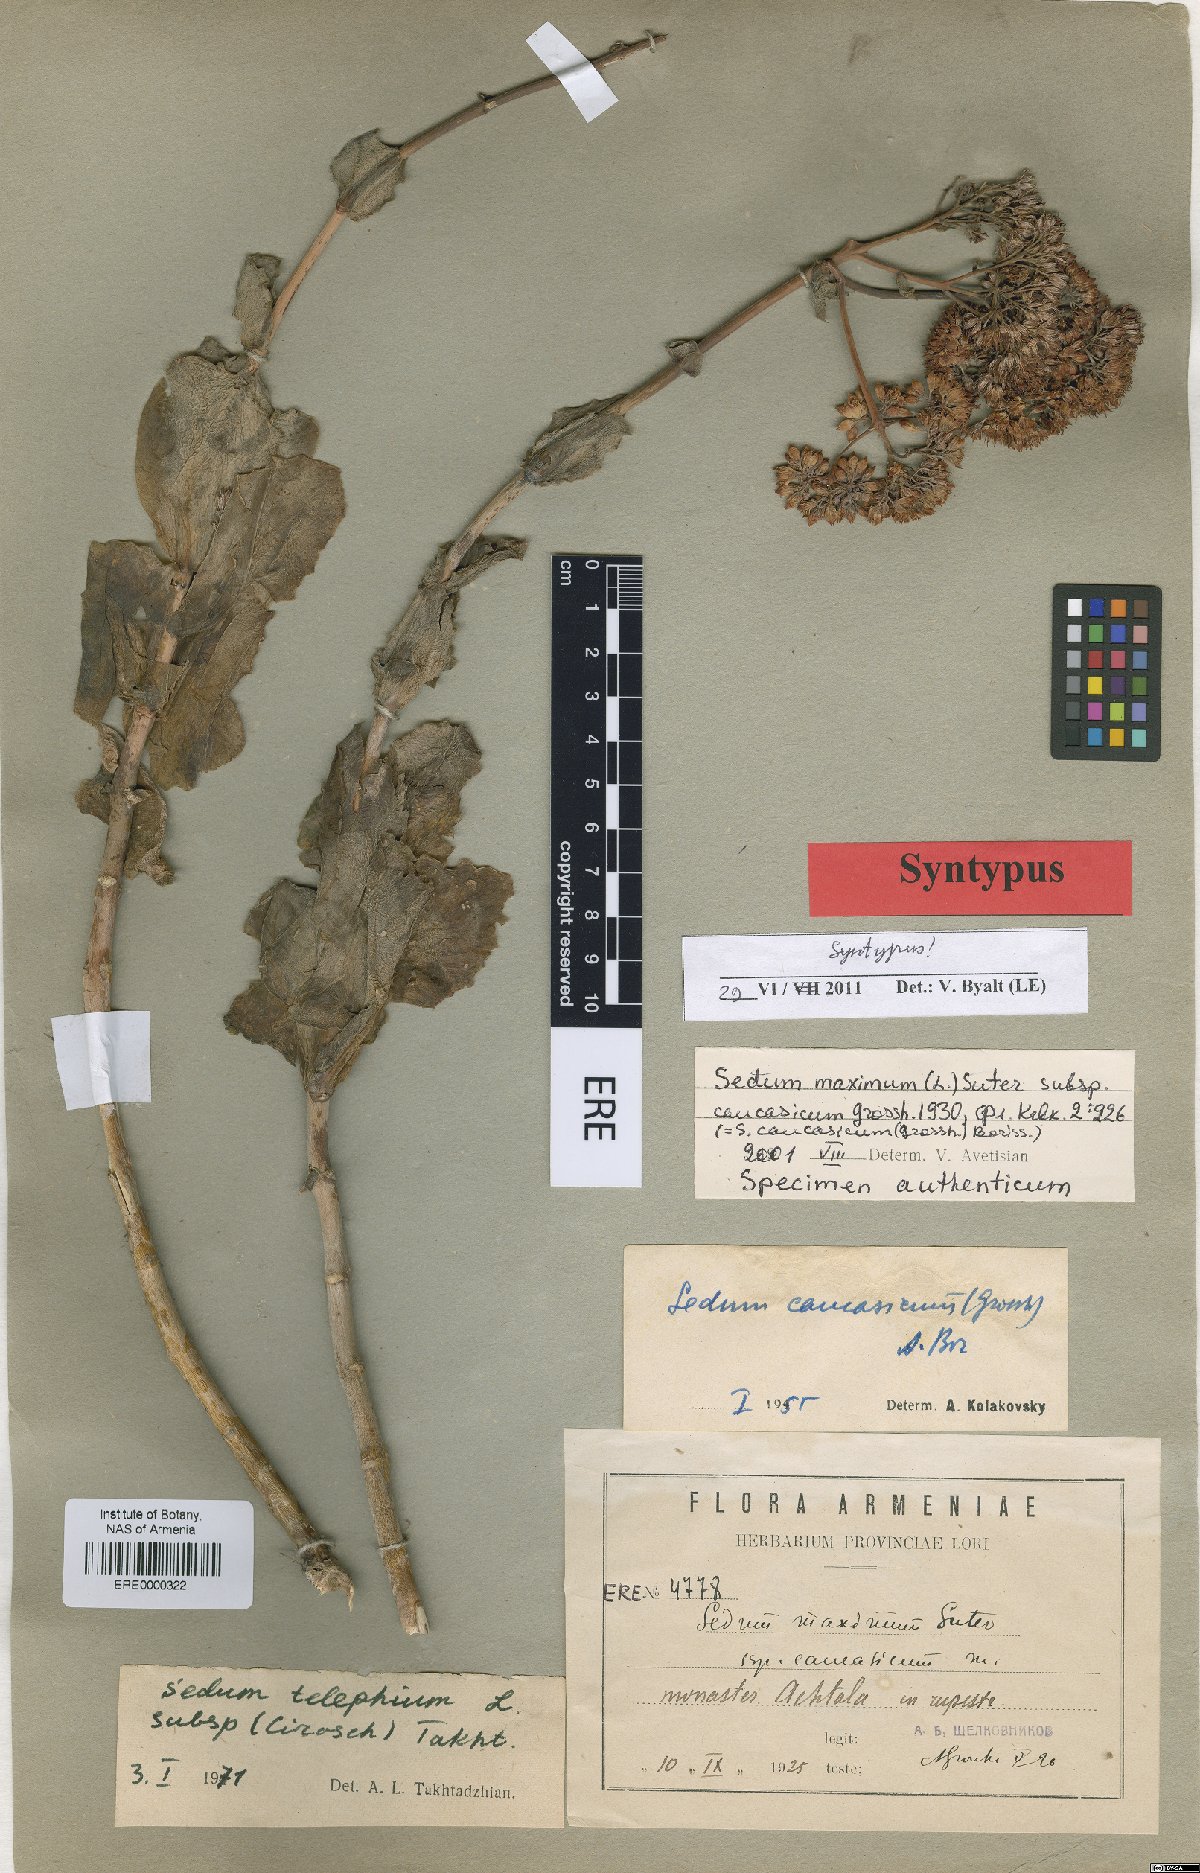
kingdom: Plantae
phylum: Tracheophyta
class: Magnoliopsida
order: Saxifragales
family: Crassulaceae
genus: Hylotelephium
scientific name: Hylotelephium maximum
